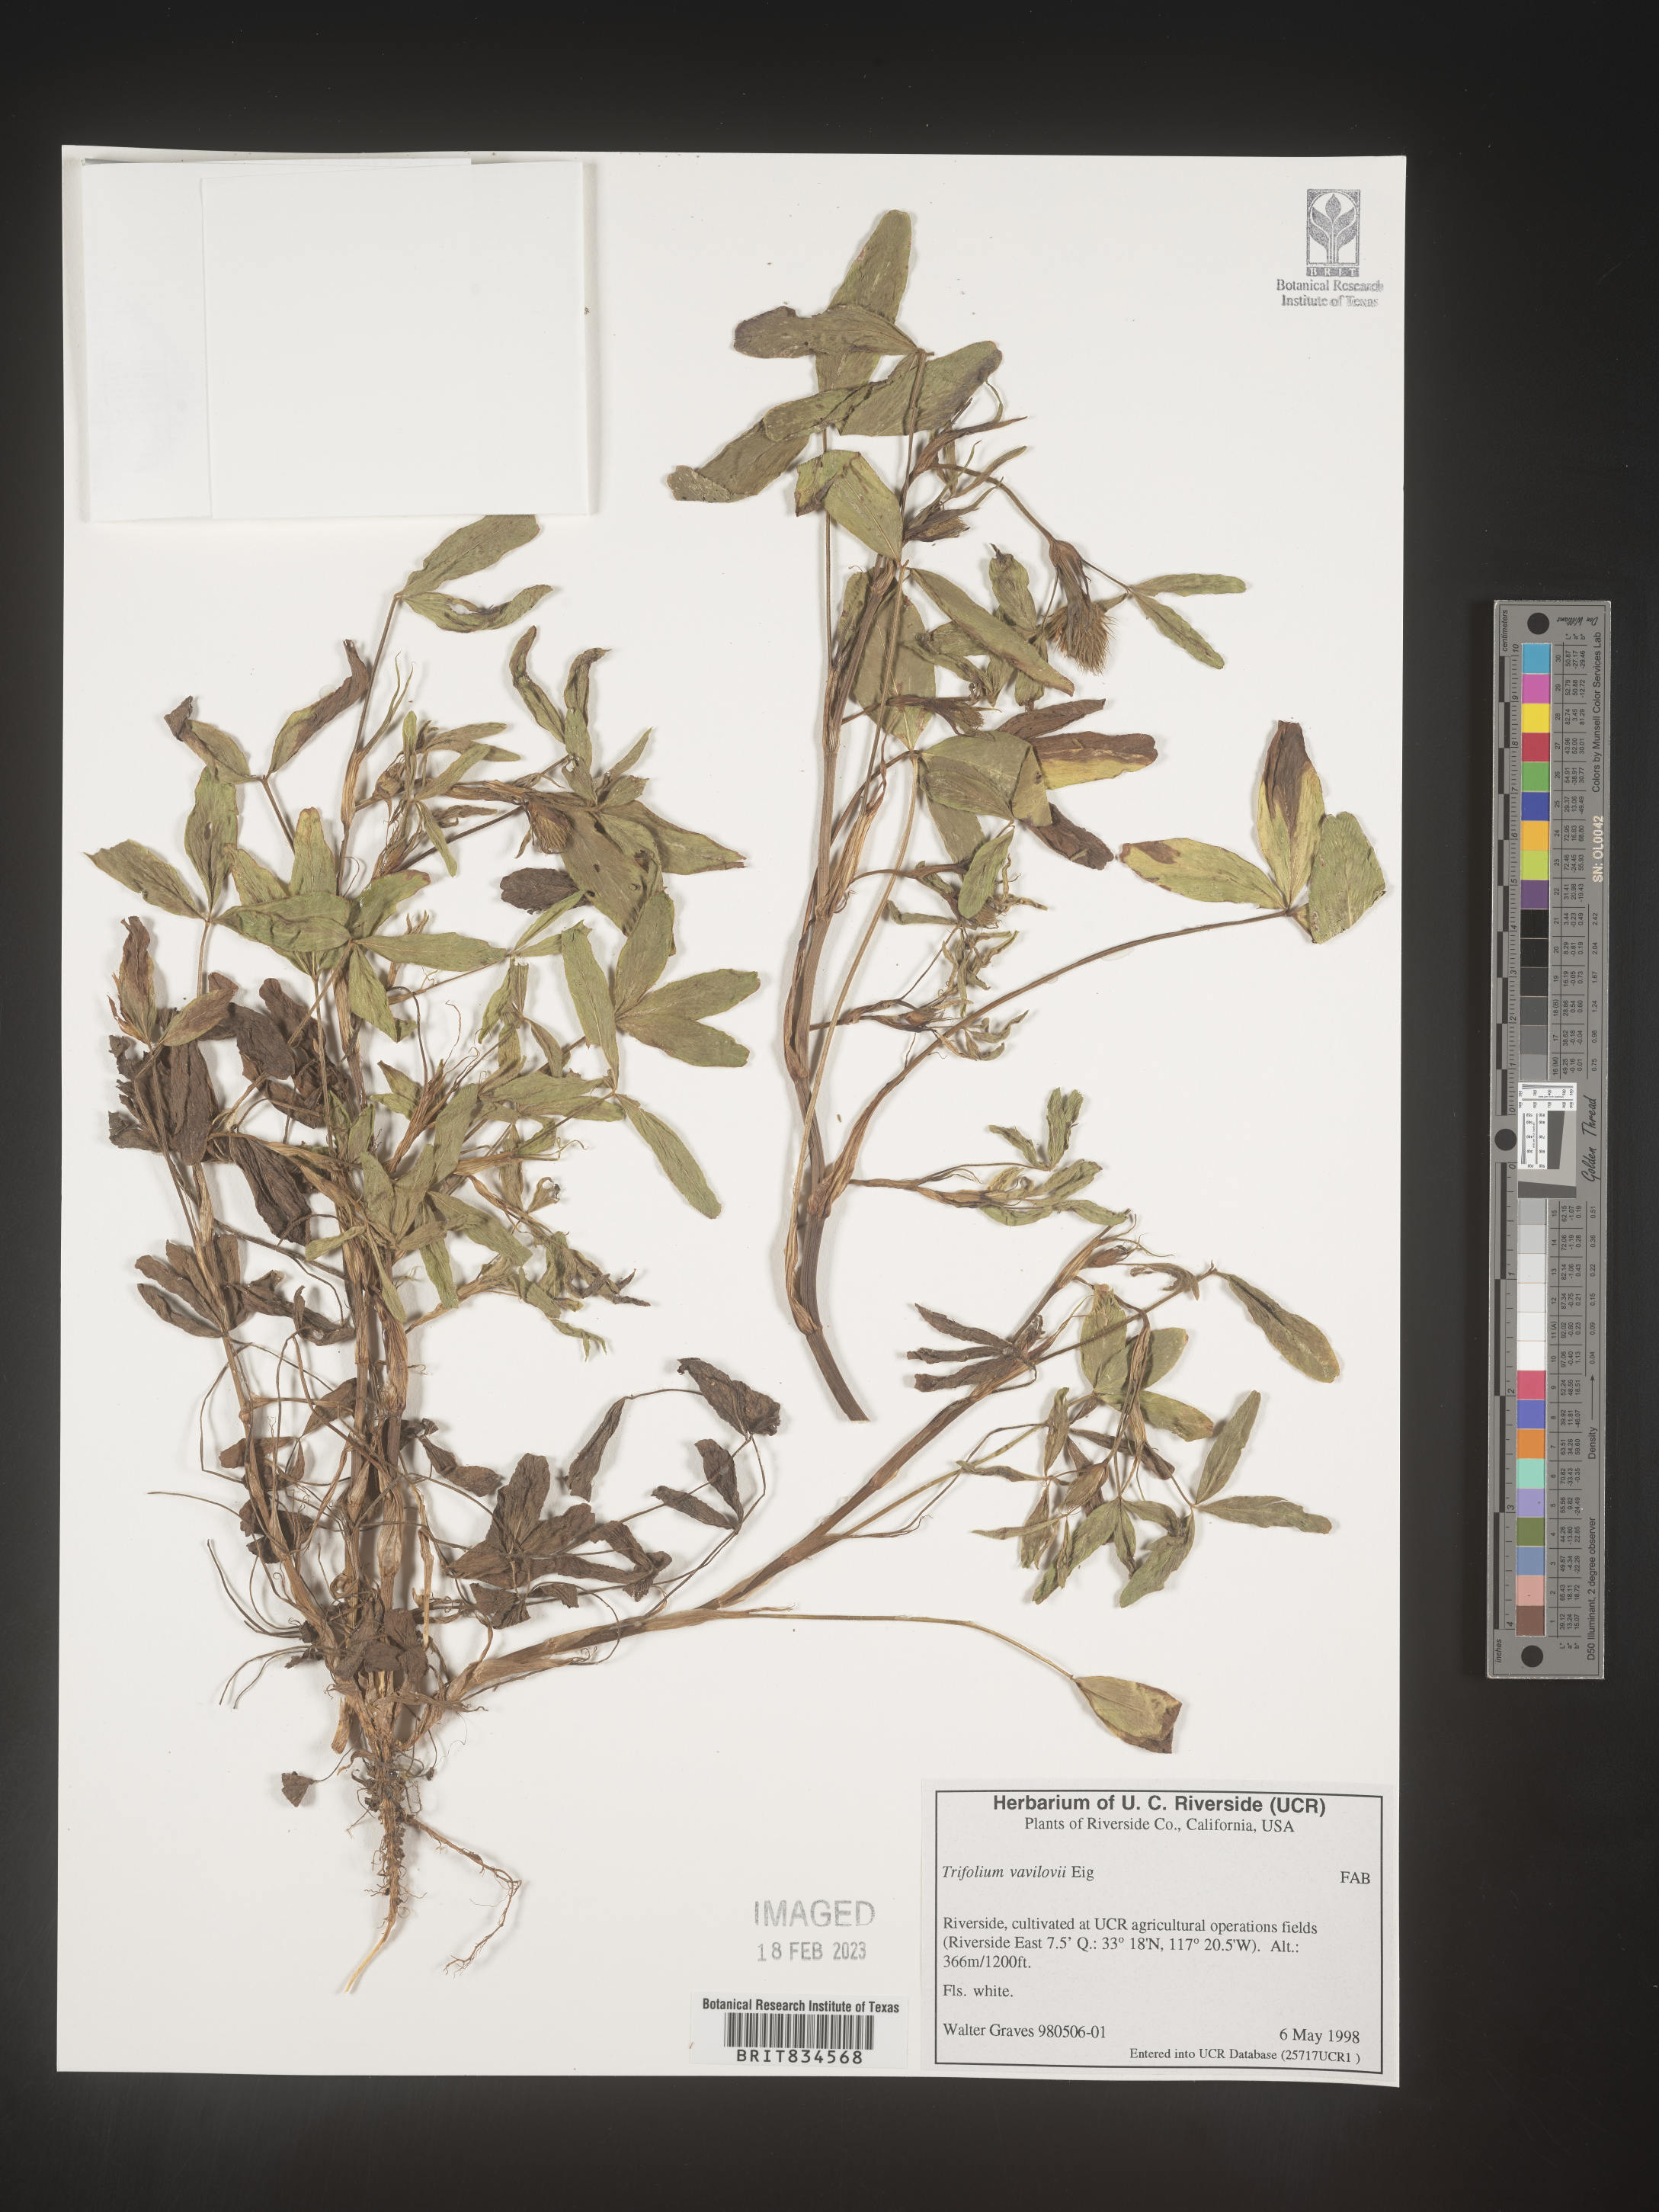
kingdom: Plantae
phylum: Tracheophyta
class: Magnoliopsida
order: Fabales
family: Fabaceae
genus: Trifolium
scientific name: Trifolium
